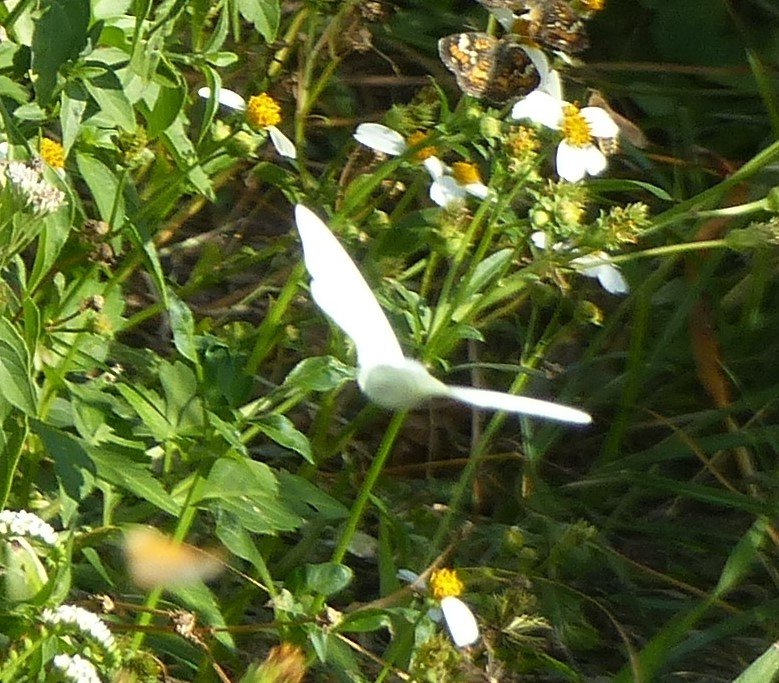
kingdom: Animalia
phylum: Arthropoda
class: Insecta
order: Lepidoptera
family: Pieridae
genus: Glutophrissa
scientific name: Glutophrissa drusilla
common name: Florida White
